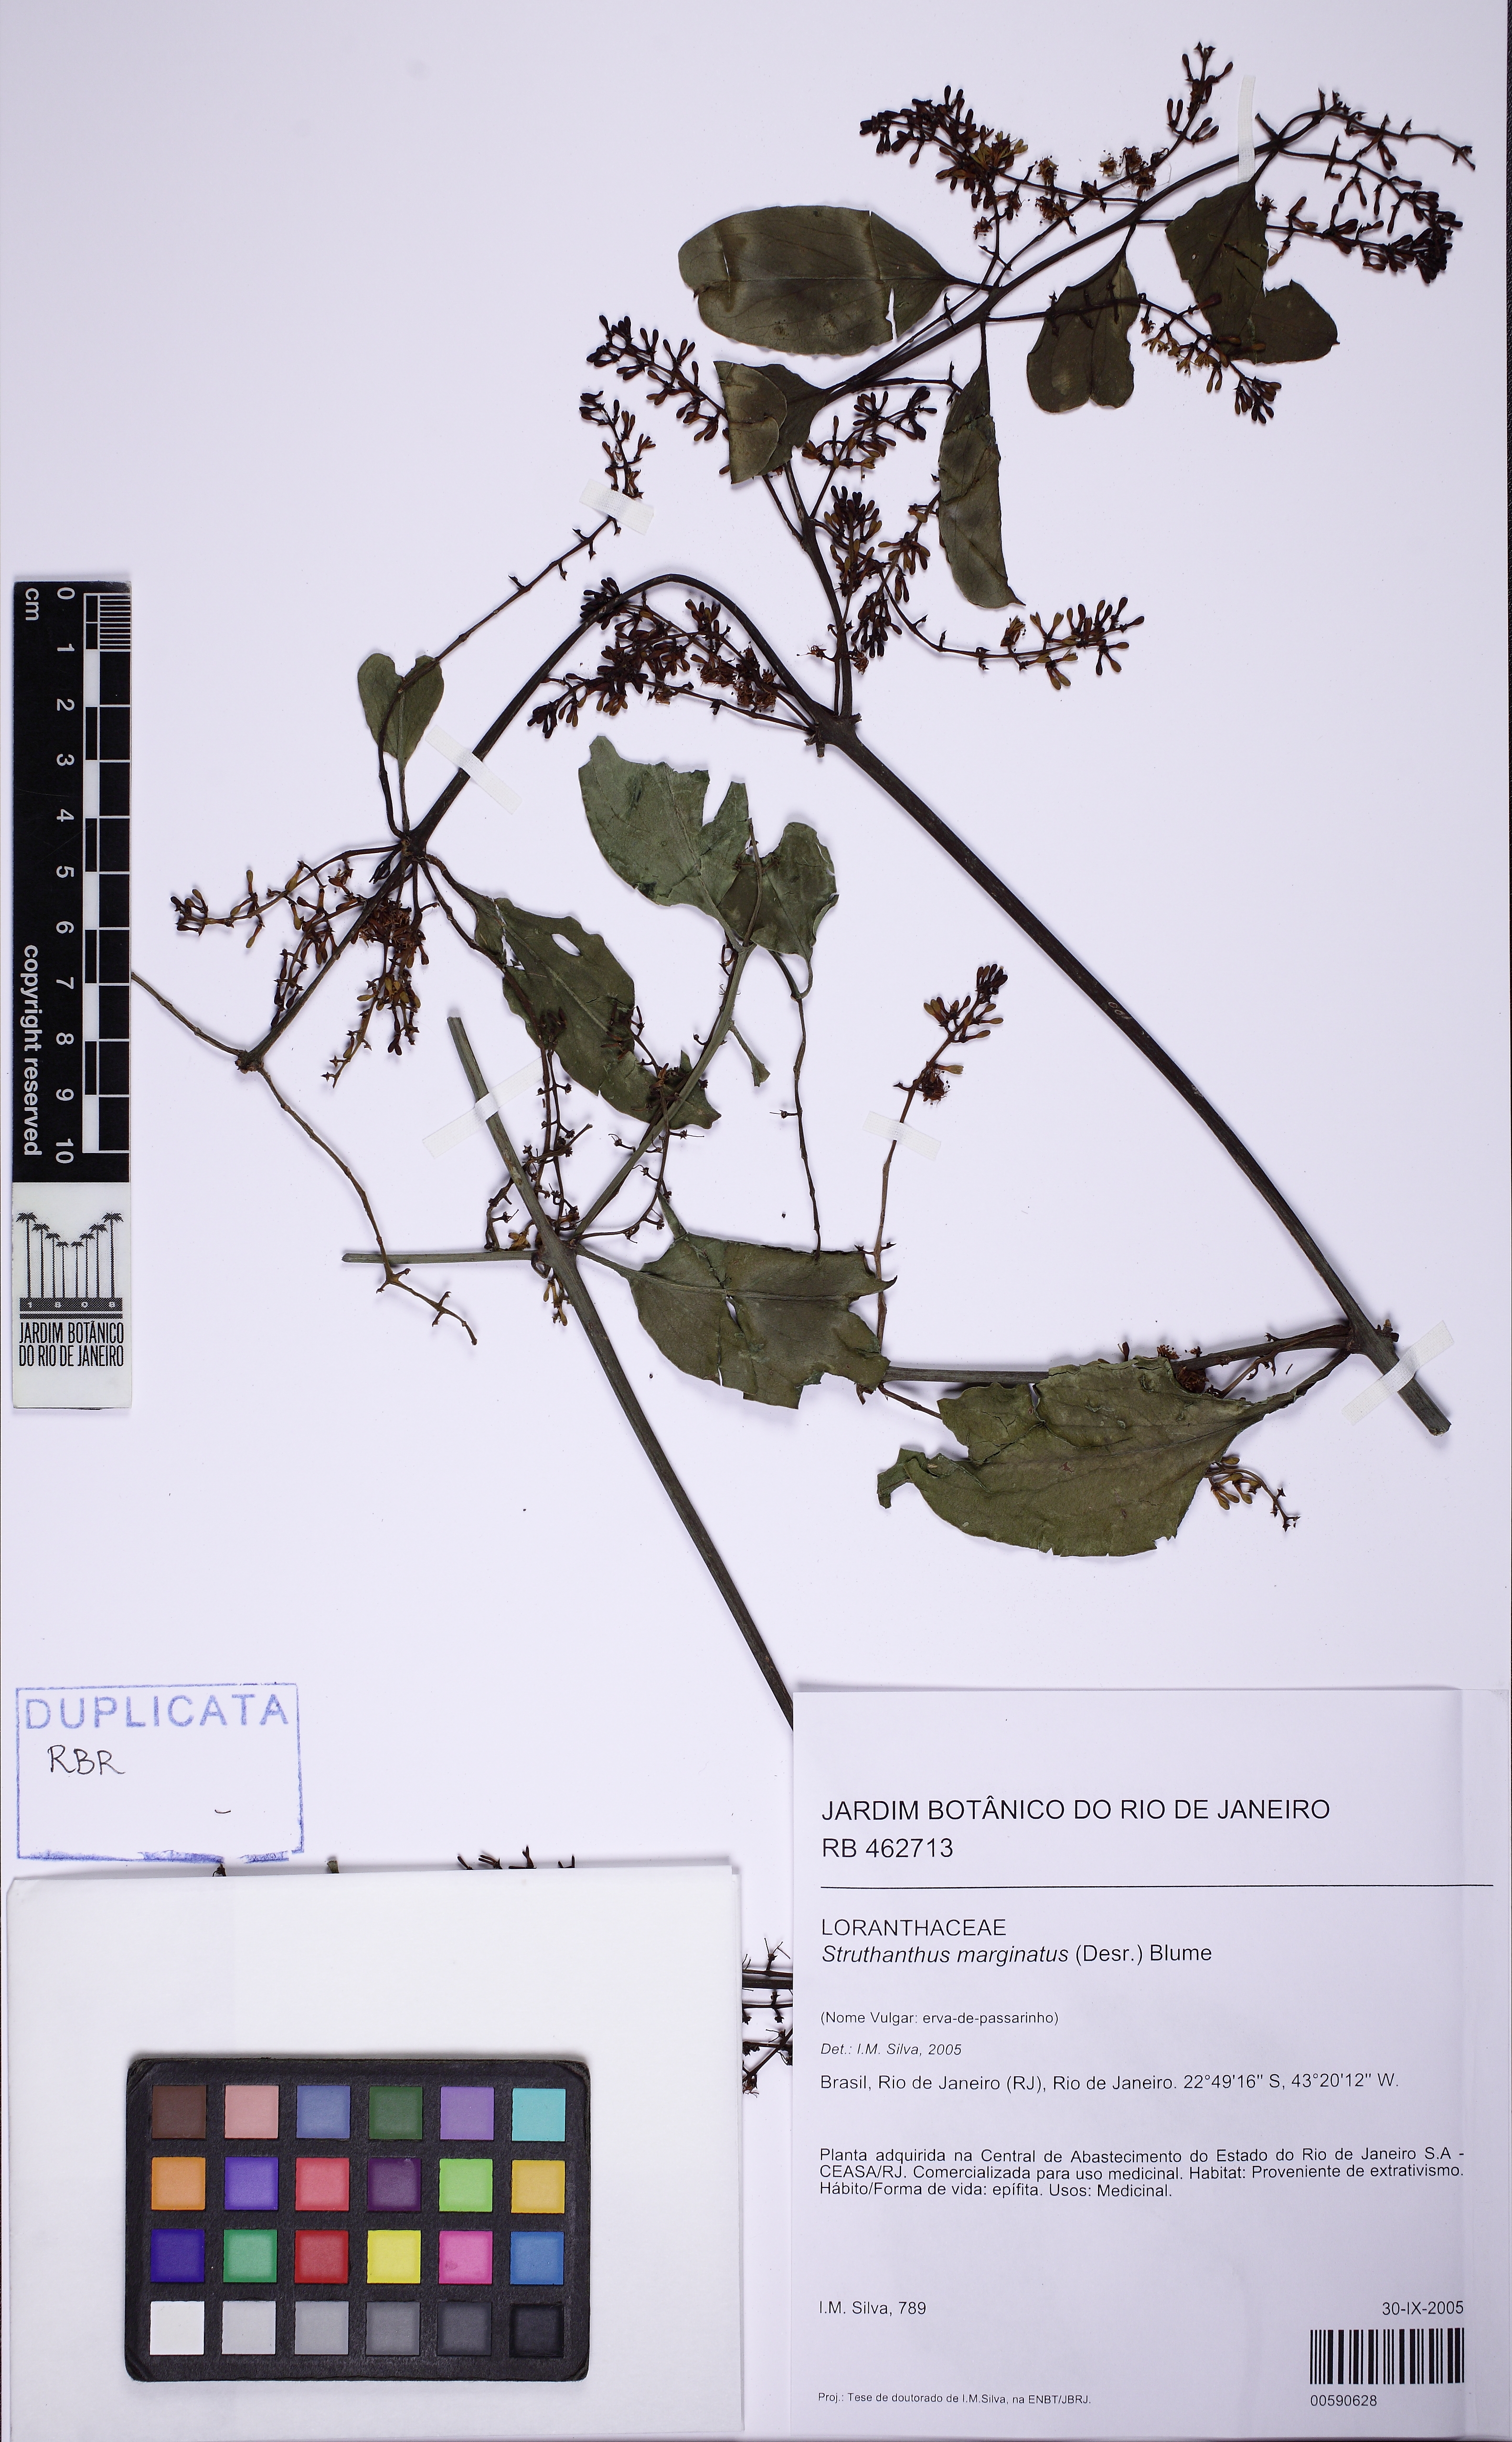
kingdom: Plantae
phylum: Tracheophyta
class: Magnoliopsida
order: Santalales
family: Loranthaceae
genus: Struthanthus
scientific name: Struthanthus marginatus
